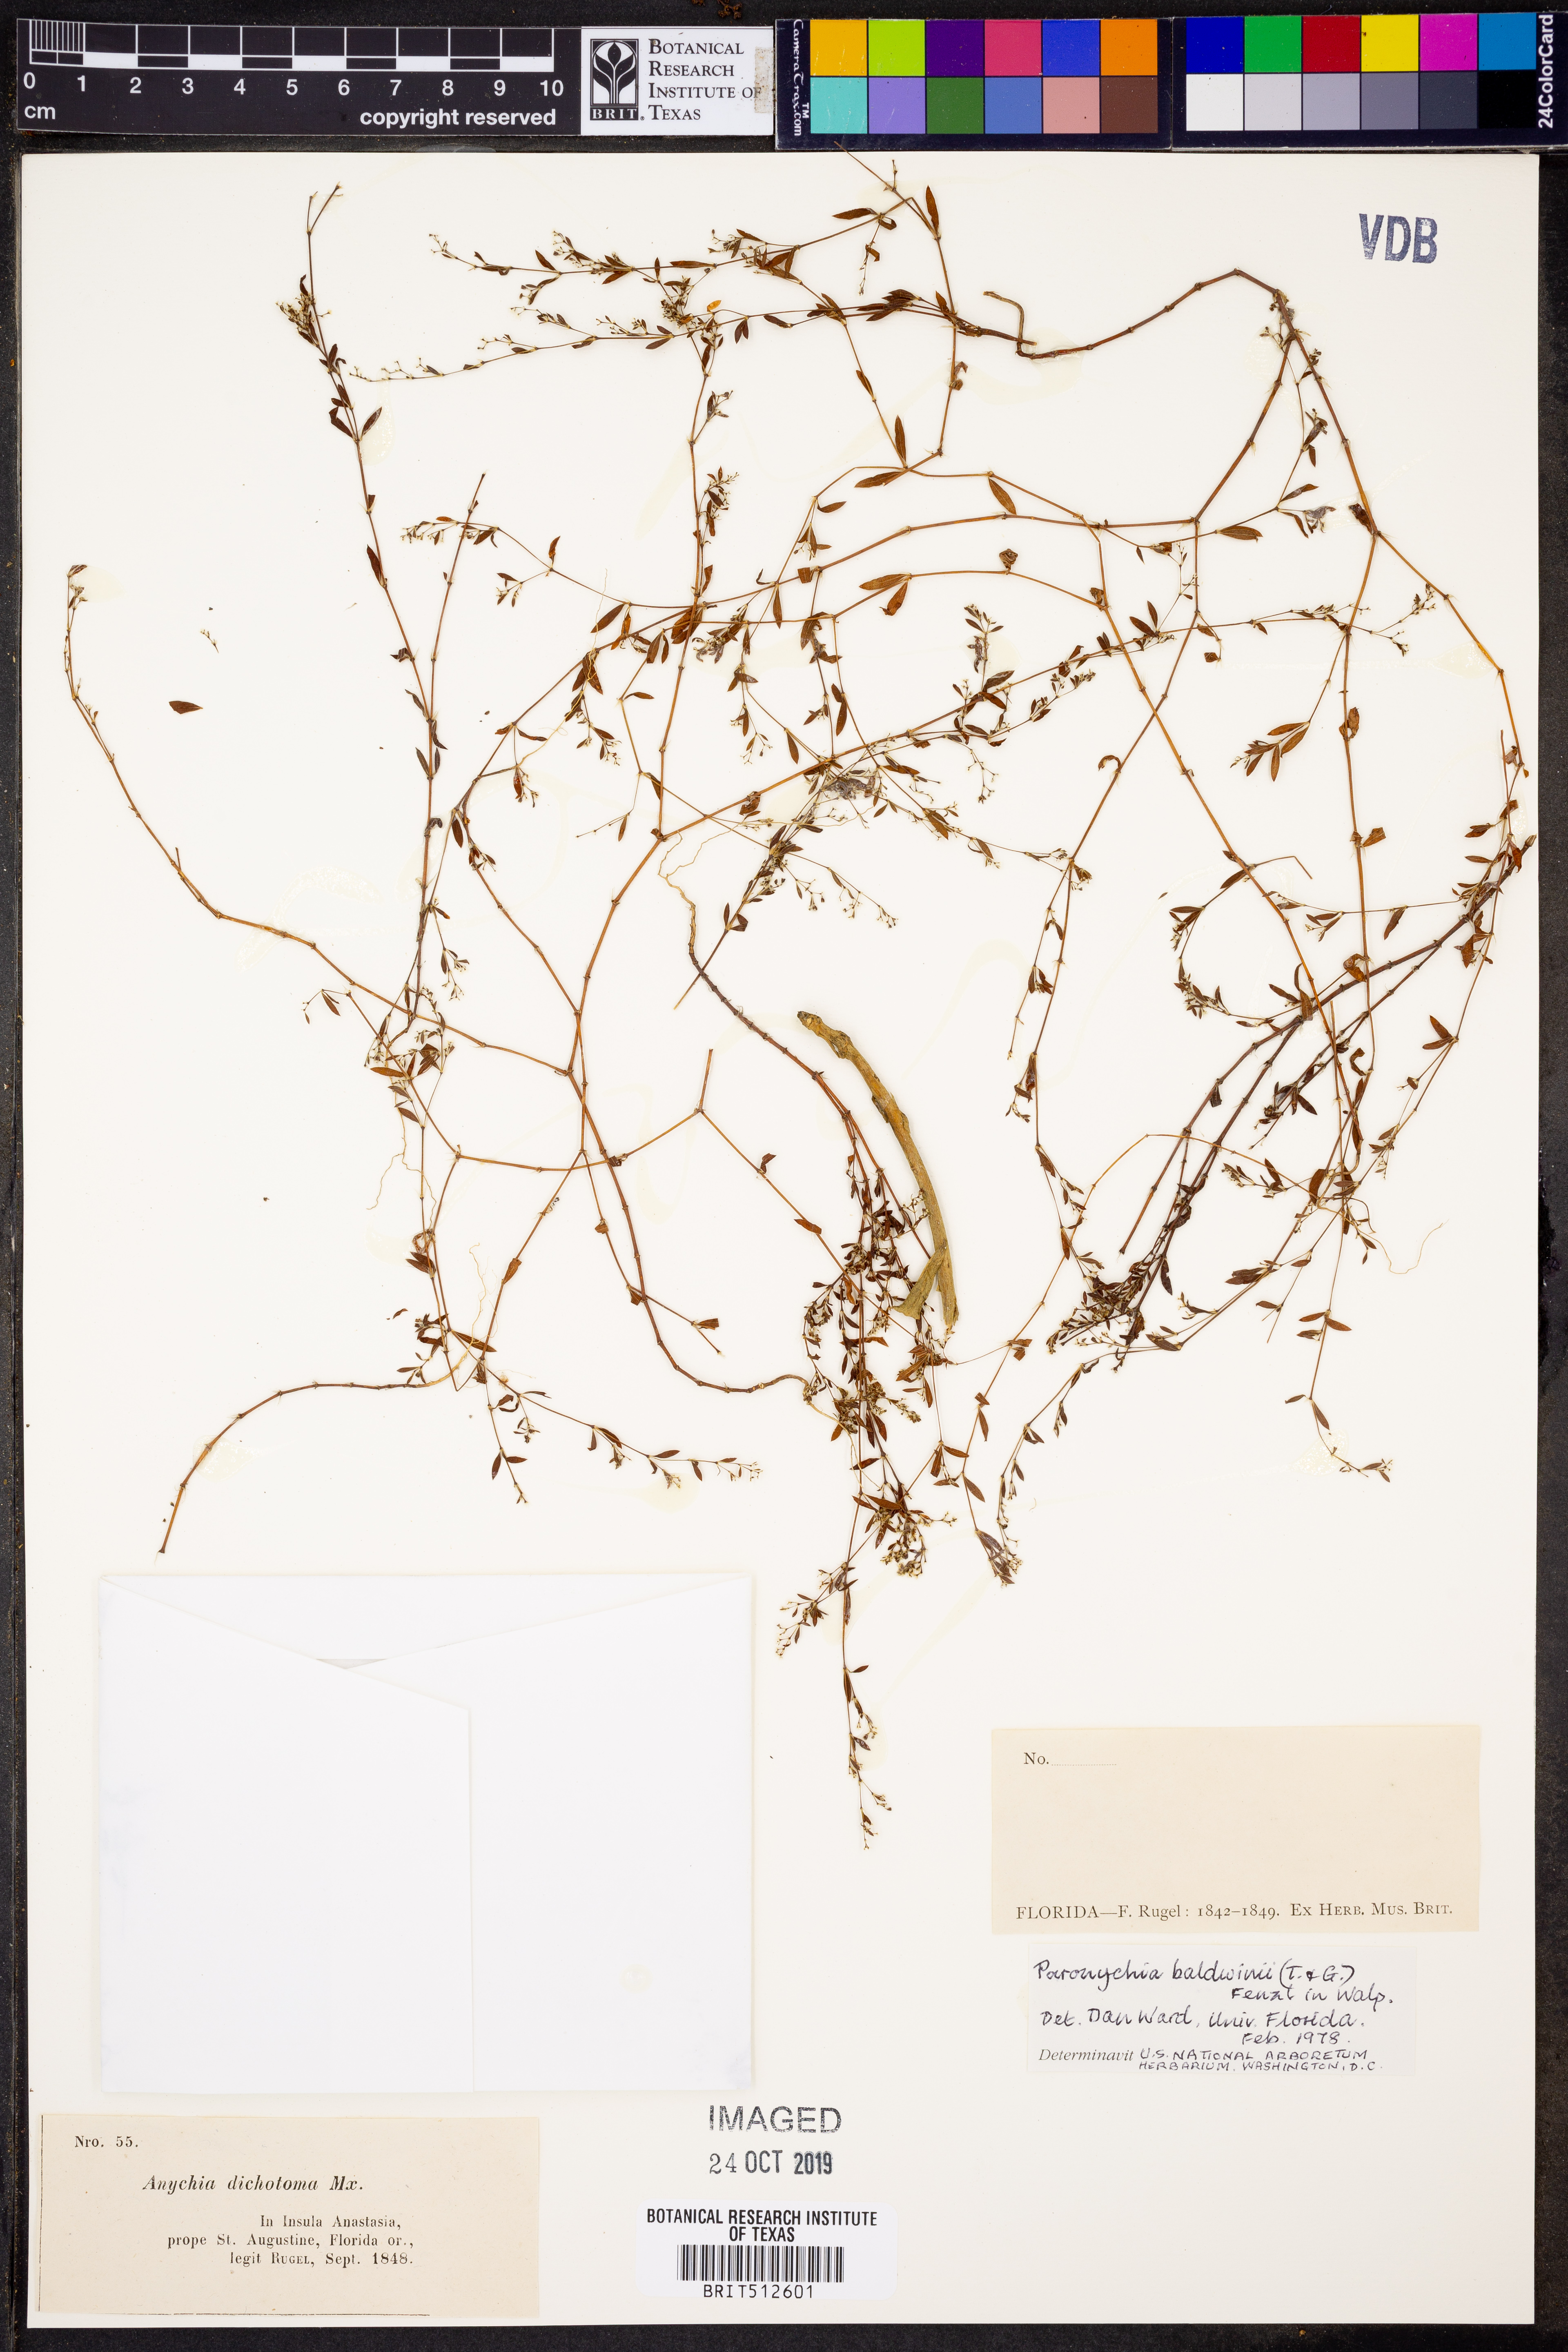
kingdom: Plantae
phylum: Tracheophyta
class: Magnoliopsida
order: Caryophyllales
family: Caryophyllaceae
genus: Paronychia
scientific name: Paronychia baldwinii
